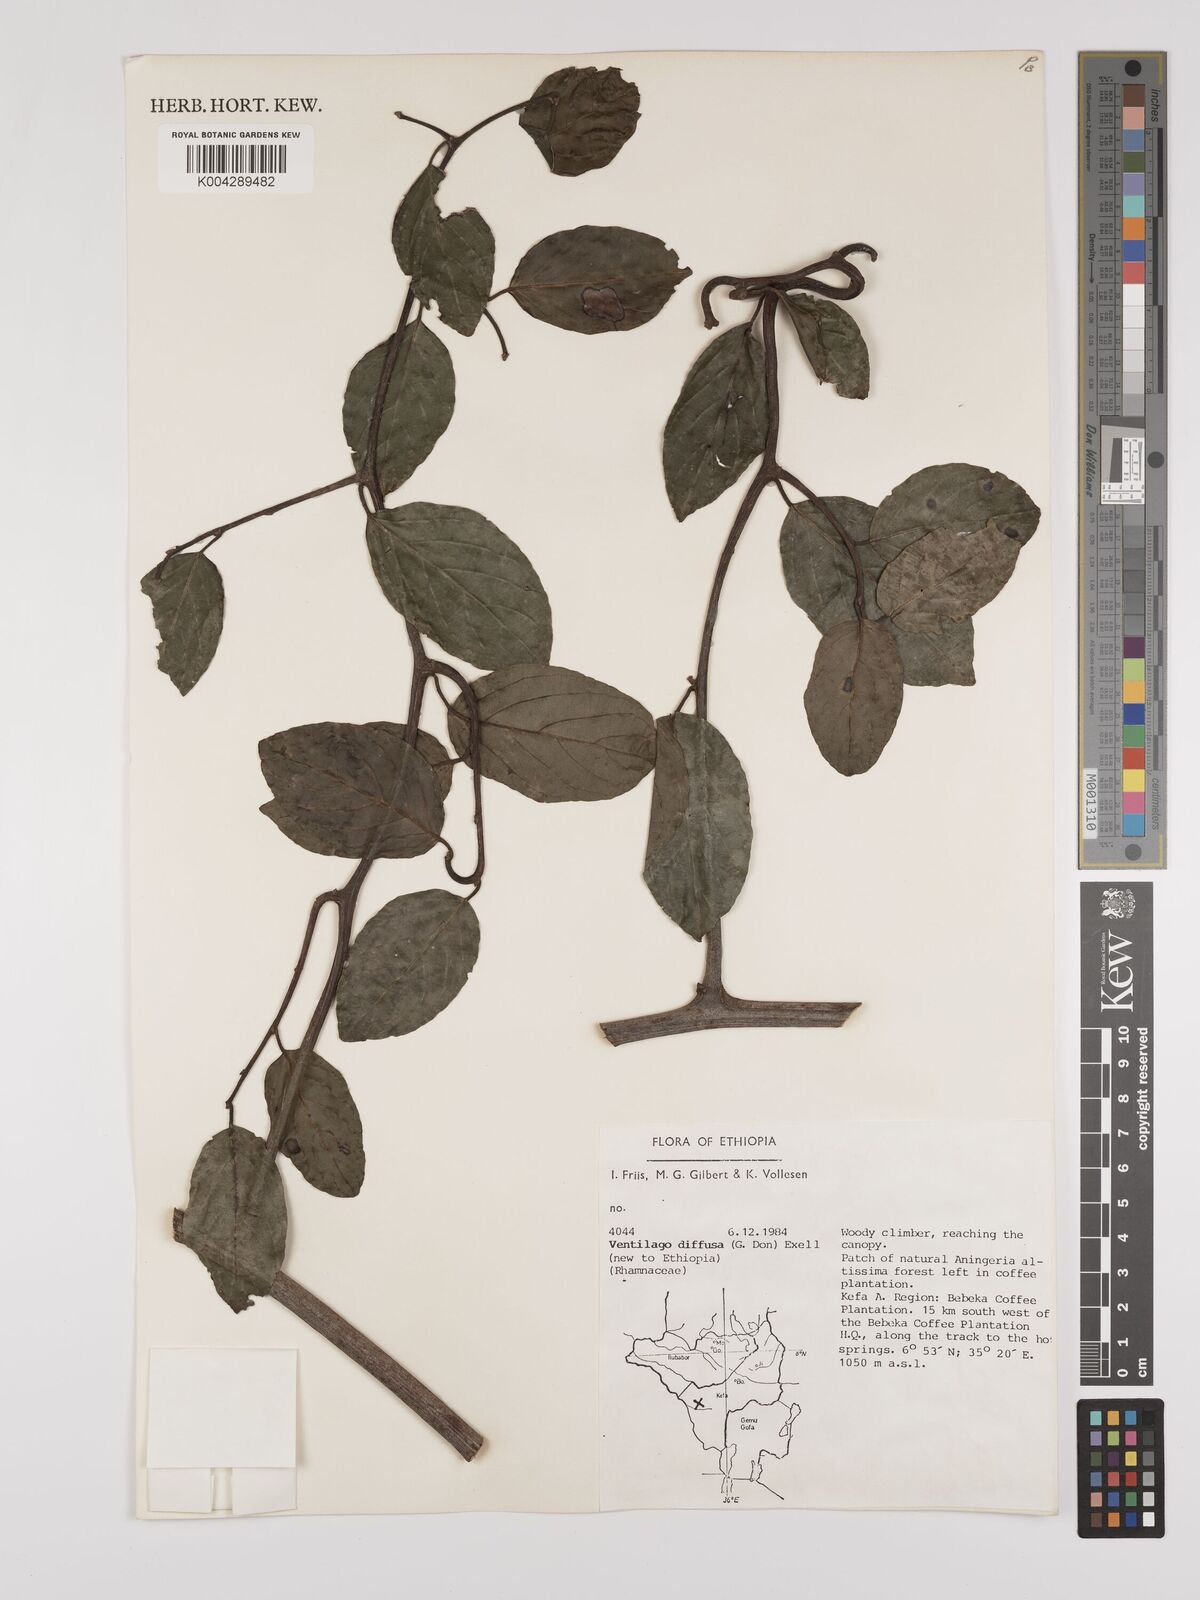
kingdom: Plantae
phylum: Tracheophyta
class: Magnoliopsida
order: Rosales
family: Rhamnaceae
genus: Ventilago
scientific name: Ventilago diffusa
